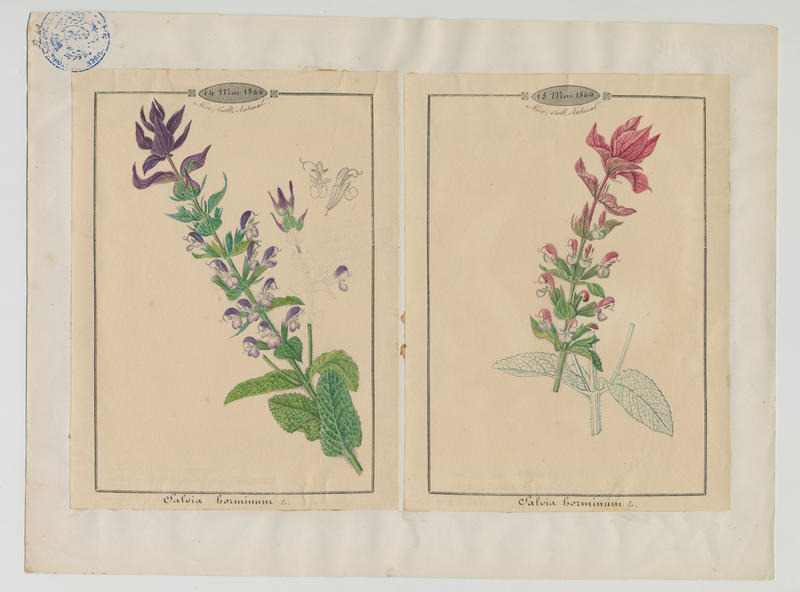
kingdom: Plantae
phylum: Tracheophyta
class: Magnoliopsida
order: Lamiales
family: Lamiaceae
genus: Salvia
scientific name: Salvia viridis
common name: Annual clary
